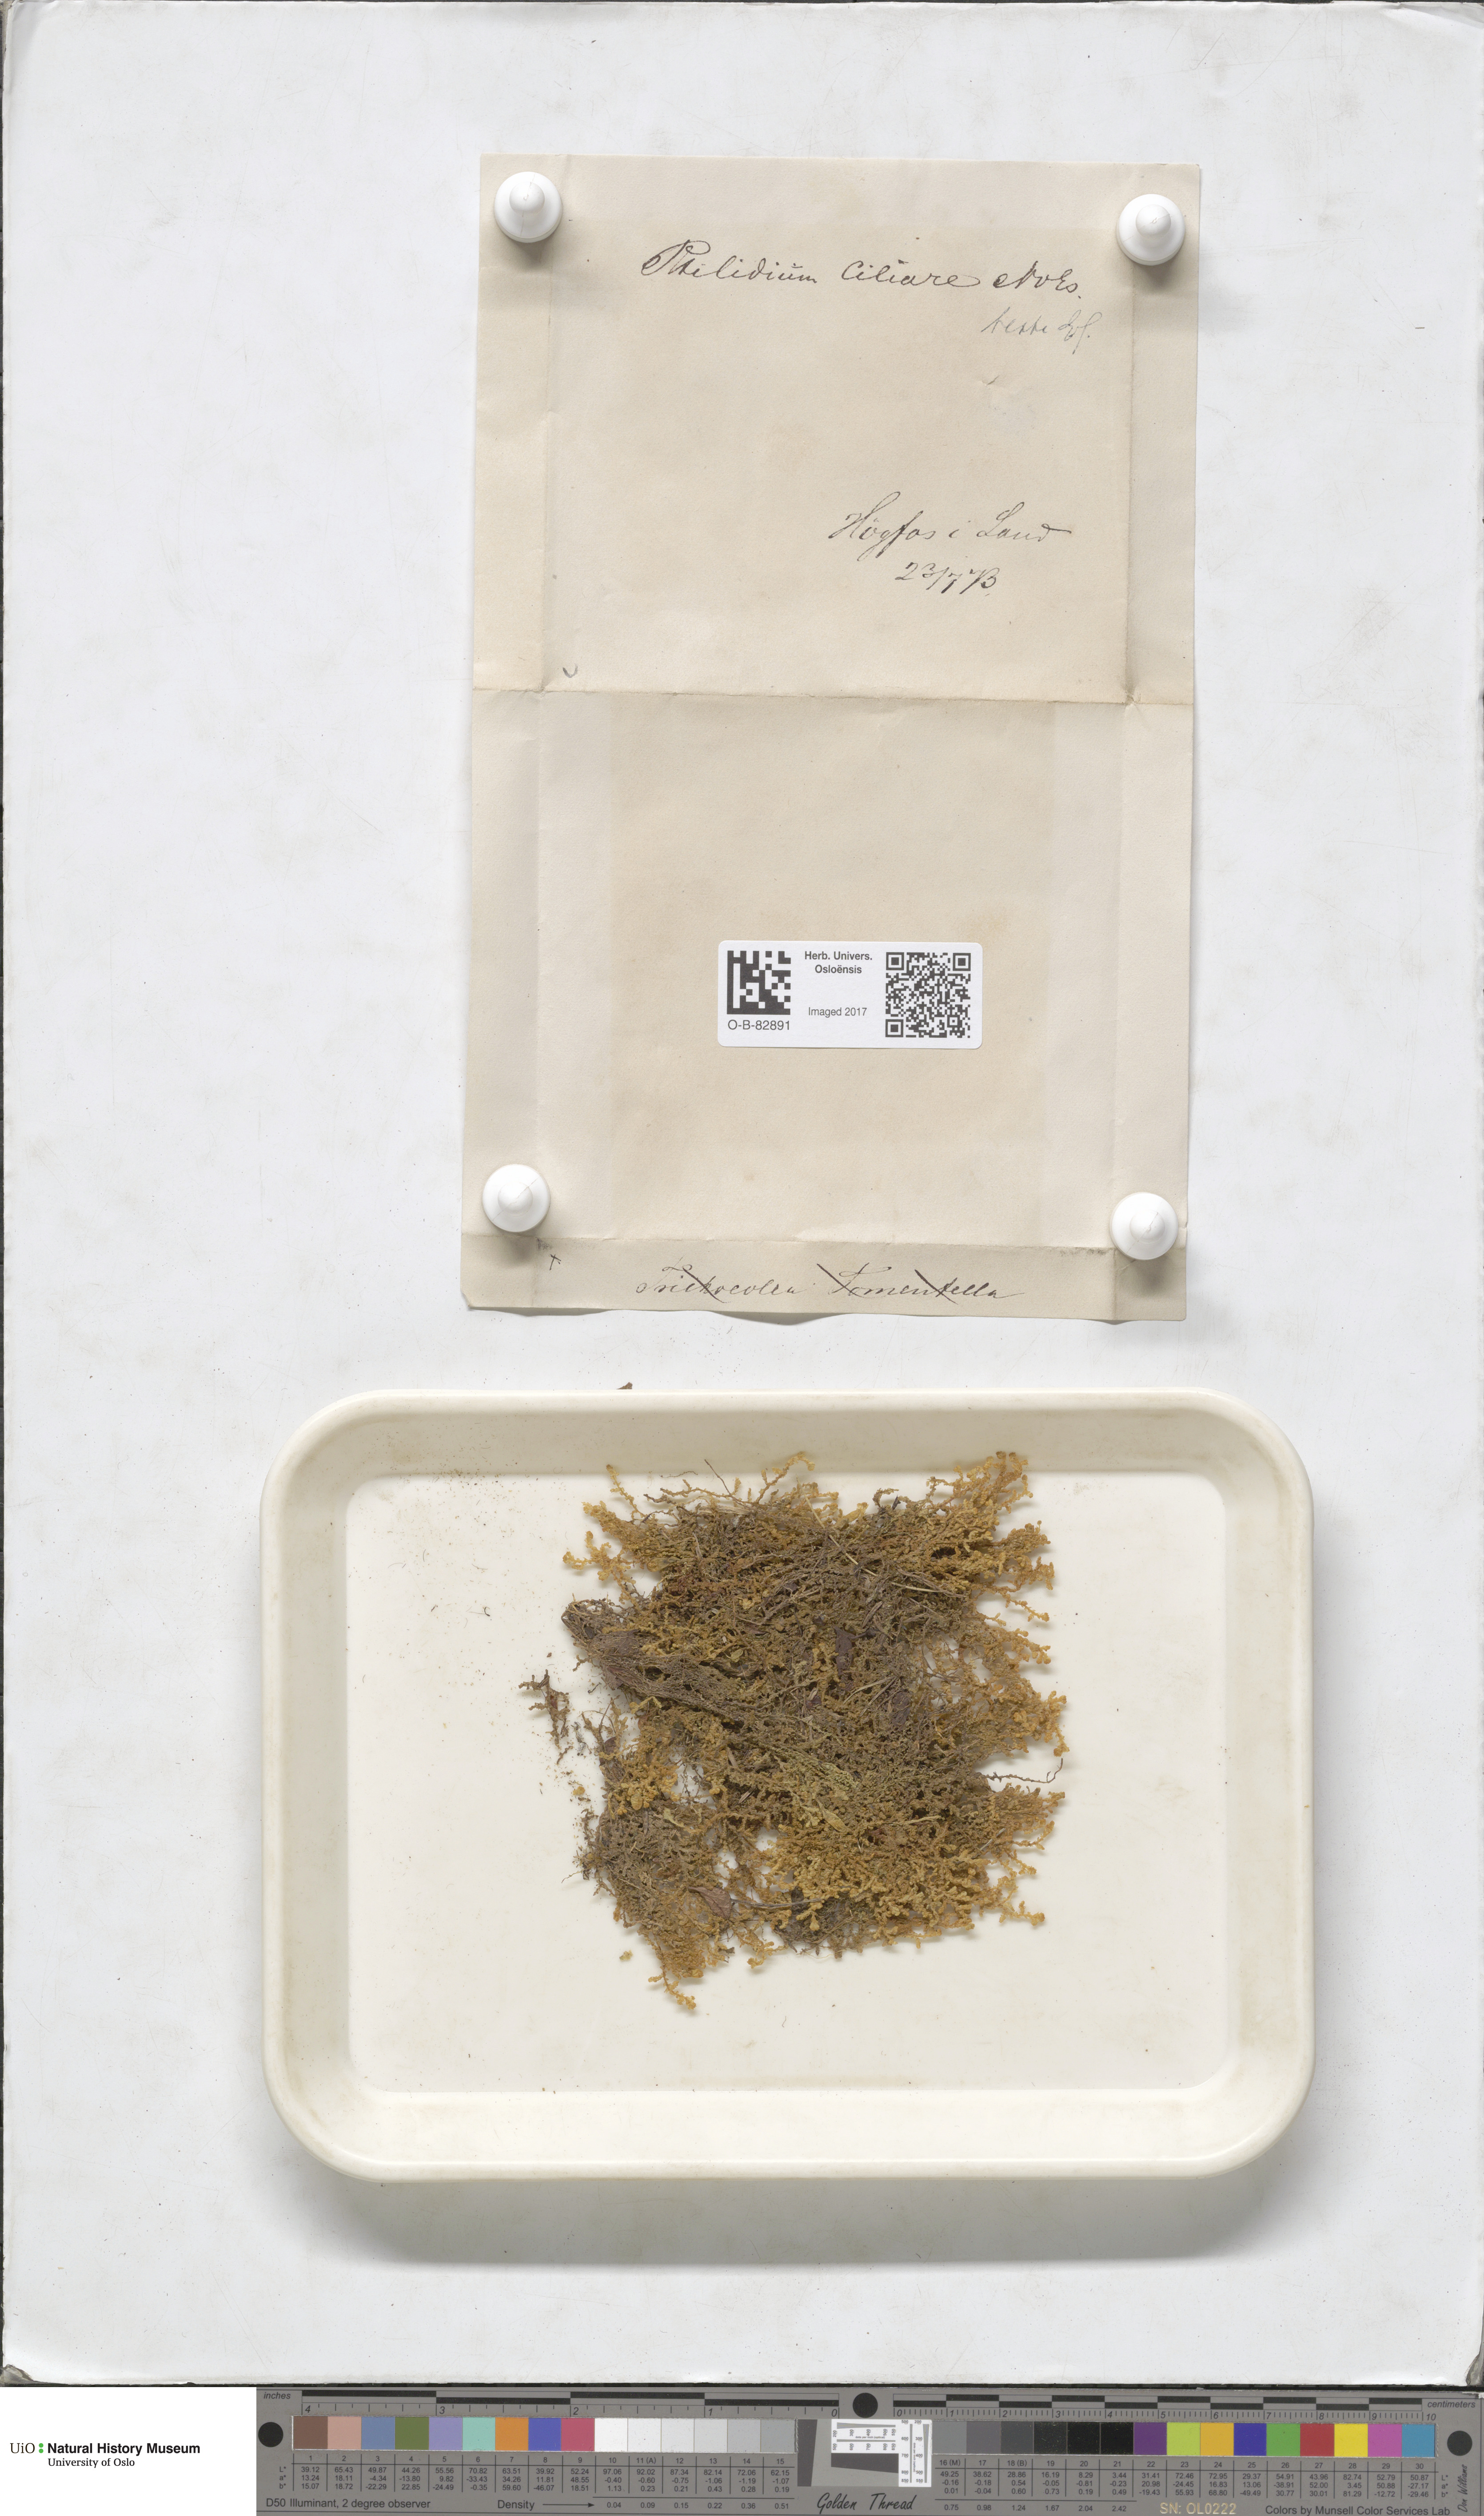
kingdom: Plantae
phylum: Marchantiophyta
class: Jungermanniopsida
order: Ptilidiales
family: Ptilidiaceae
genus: Ptilidium
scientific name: Ptilidium ciliare
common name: Ciliate fringewort
